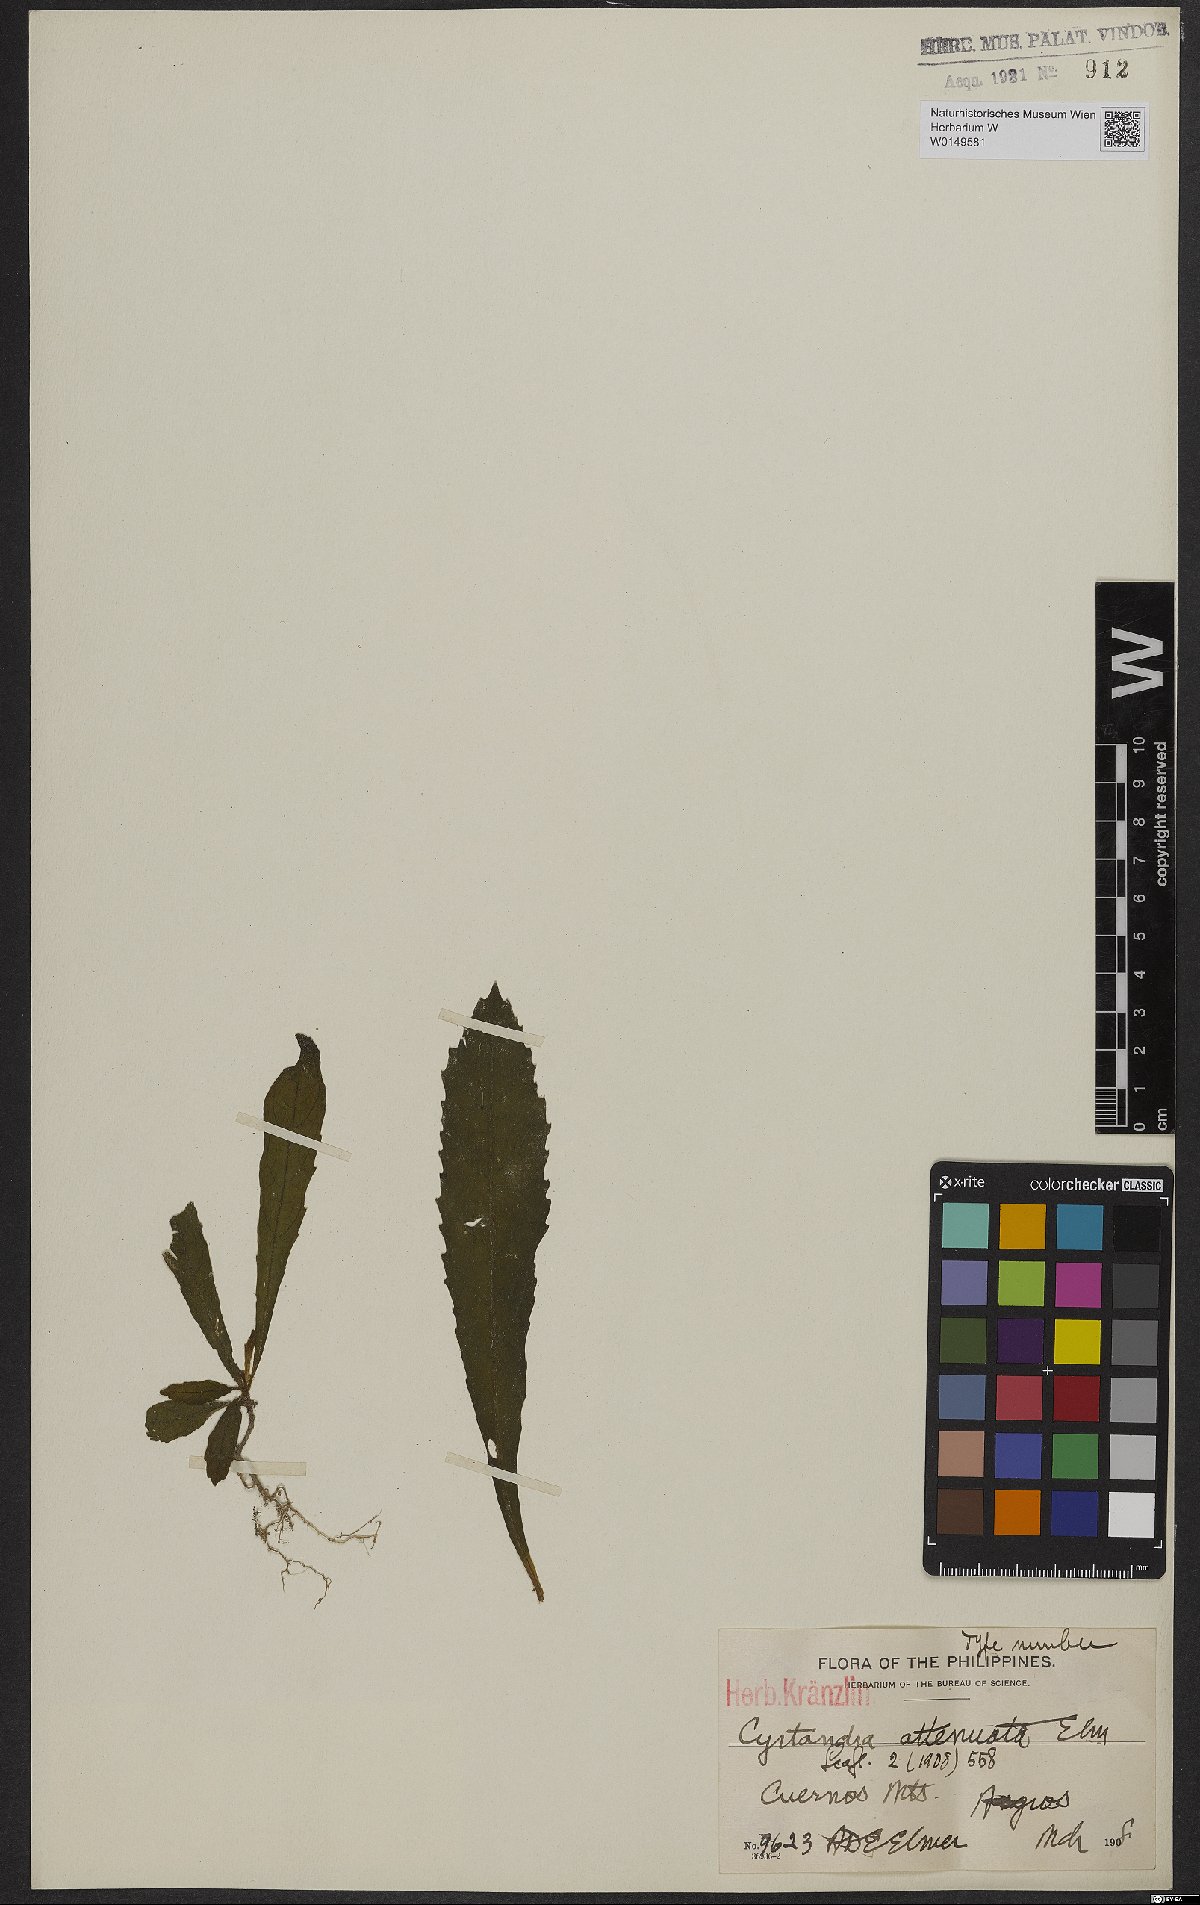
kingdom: Plantae
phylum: Tracheophyta
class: Magnoliopsida
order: Lamiales
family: Gesneriaceae
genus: Cyrtandra
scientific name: Cyrtandra attenuata
